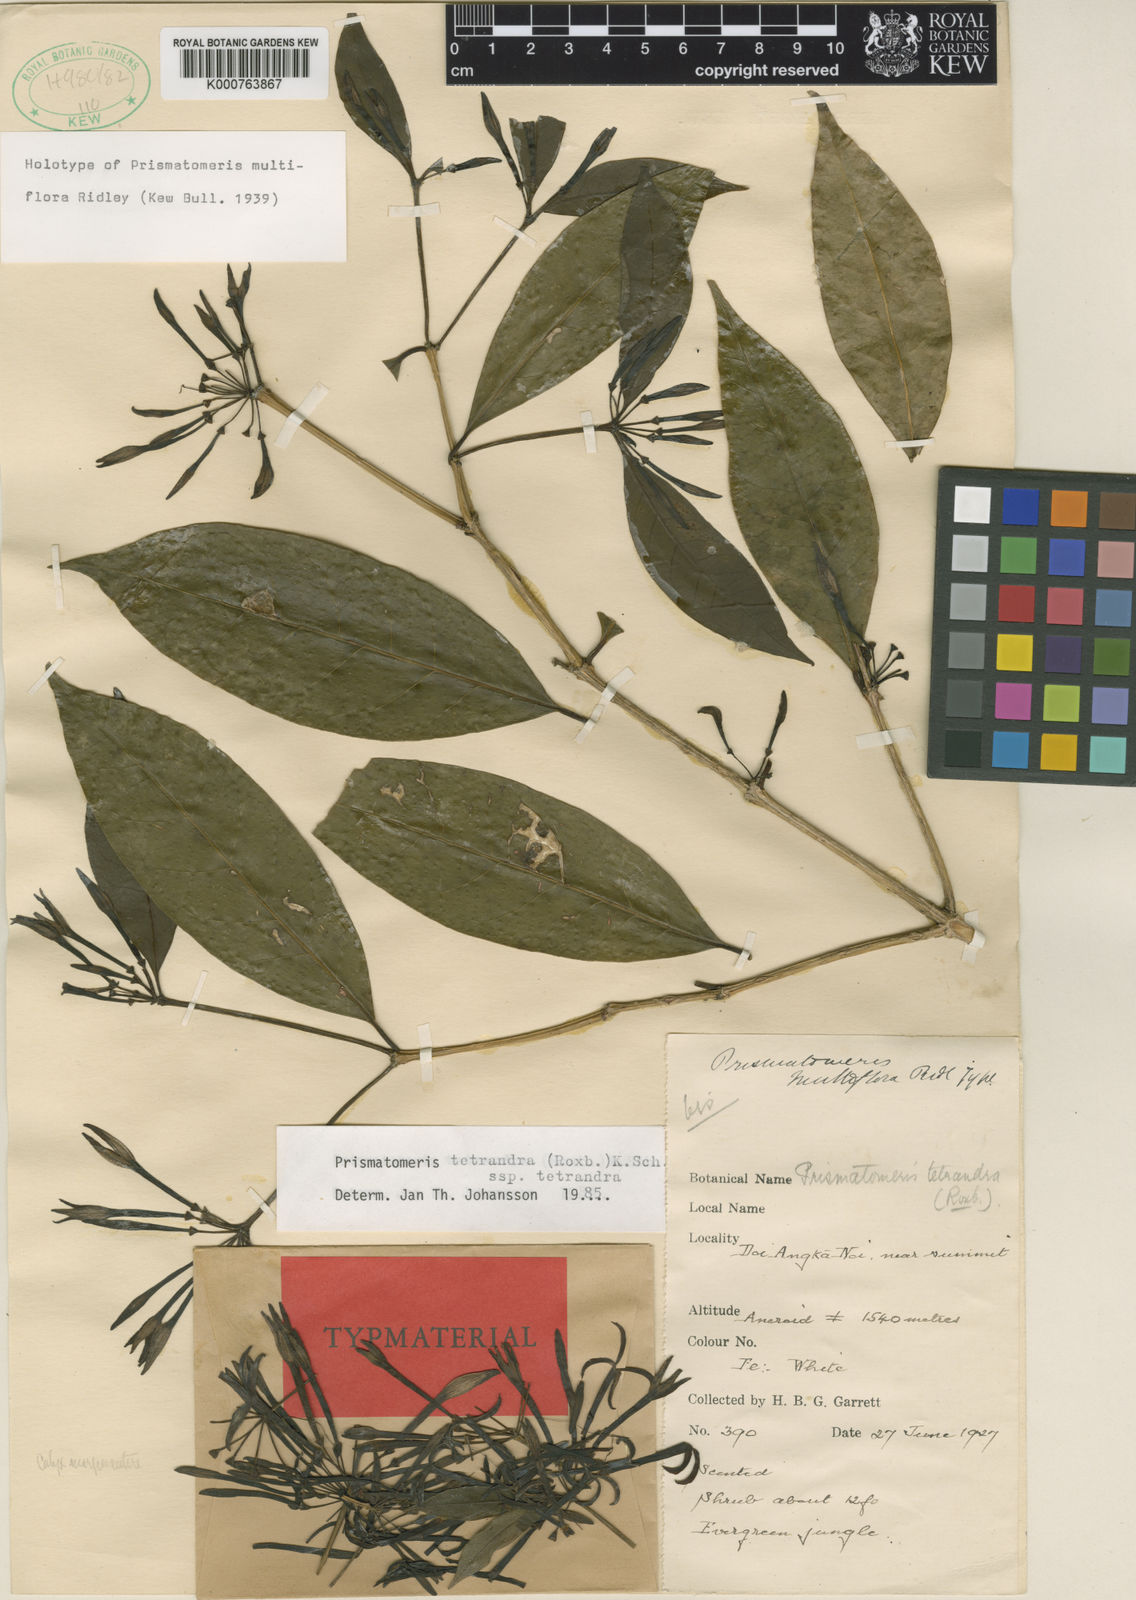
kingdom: Plantae
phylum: Tracheophyta
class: Magnoliopsida
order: Gentianales
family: Rubiaceae
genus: Prismatomeris
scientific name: Prismatomeris tetrandra
